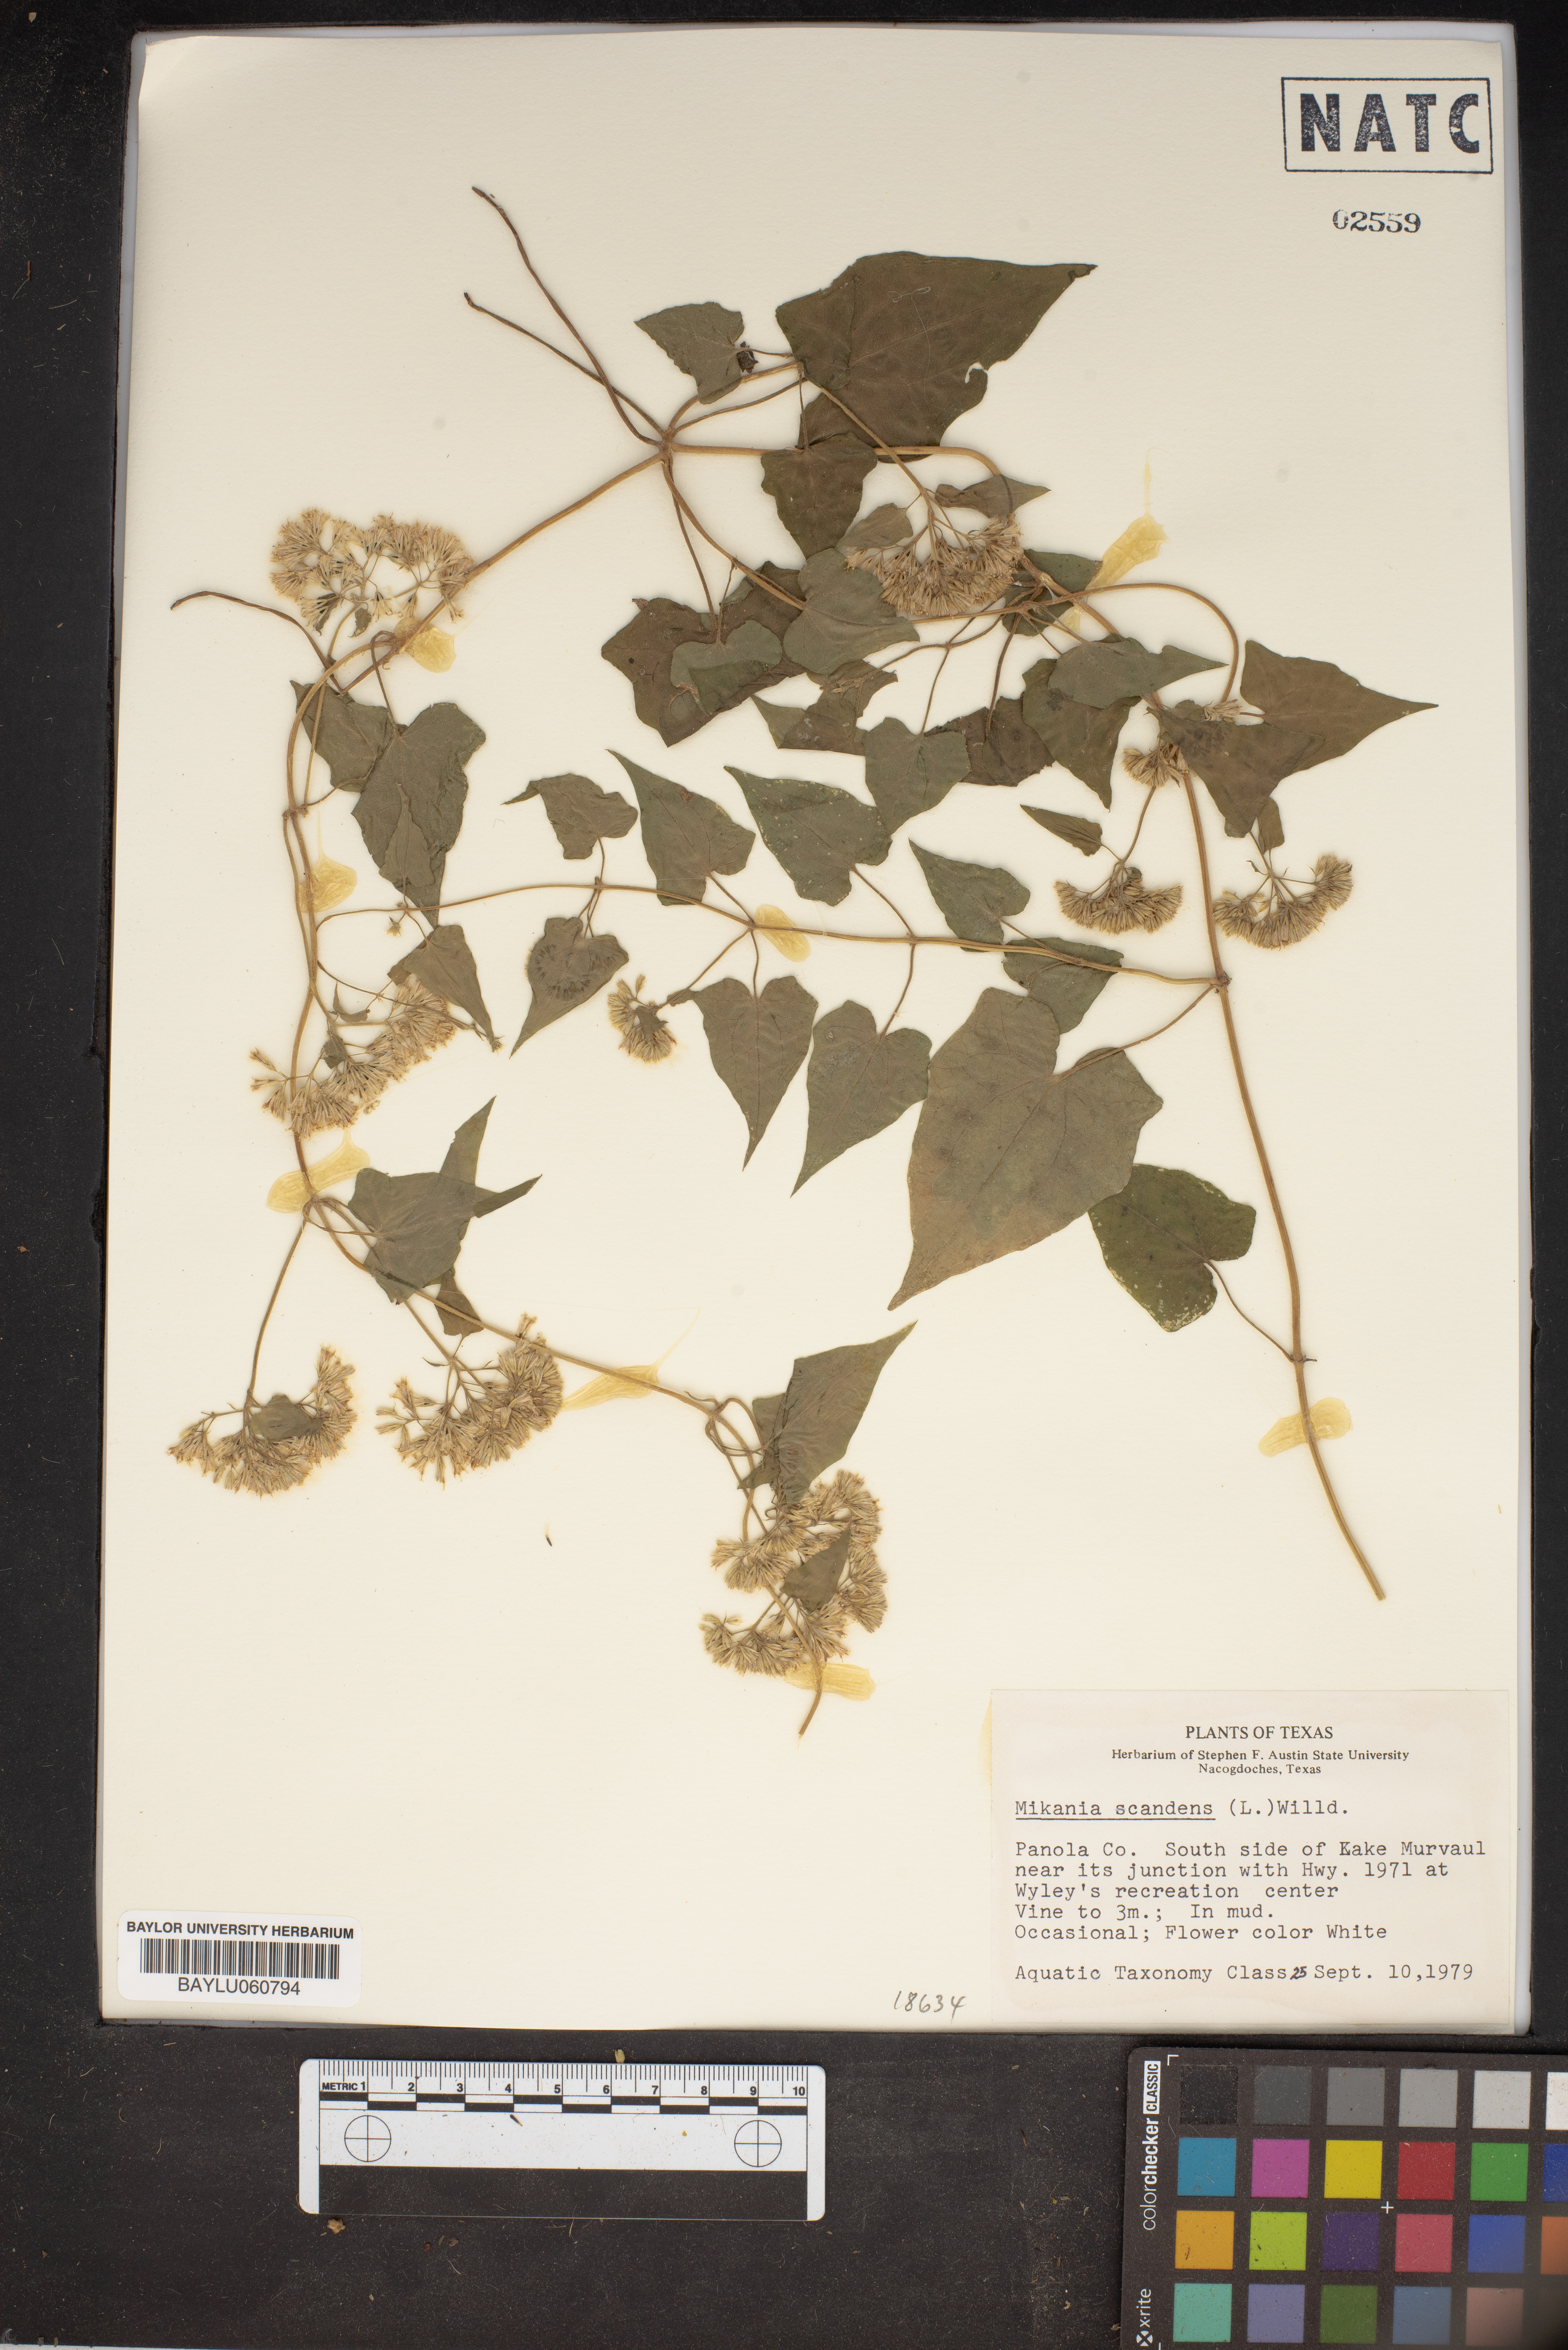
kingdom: Plantae
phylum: Tracheophyta
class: Magnoliopsida
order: Asterales
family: Asteraceae
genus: Mikania
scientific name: Mikania scandens
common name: Climbing hempvine
